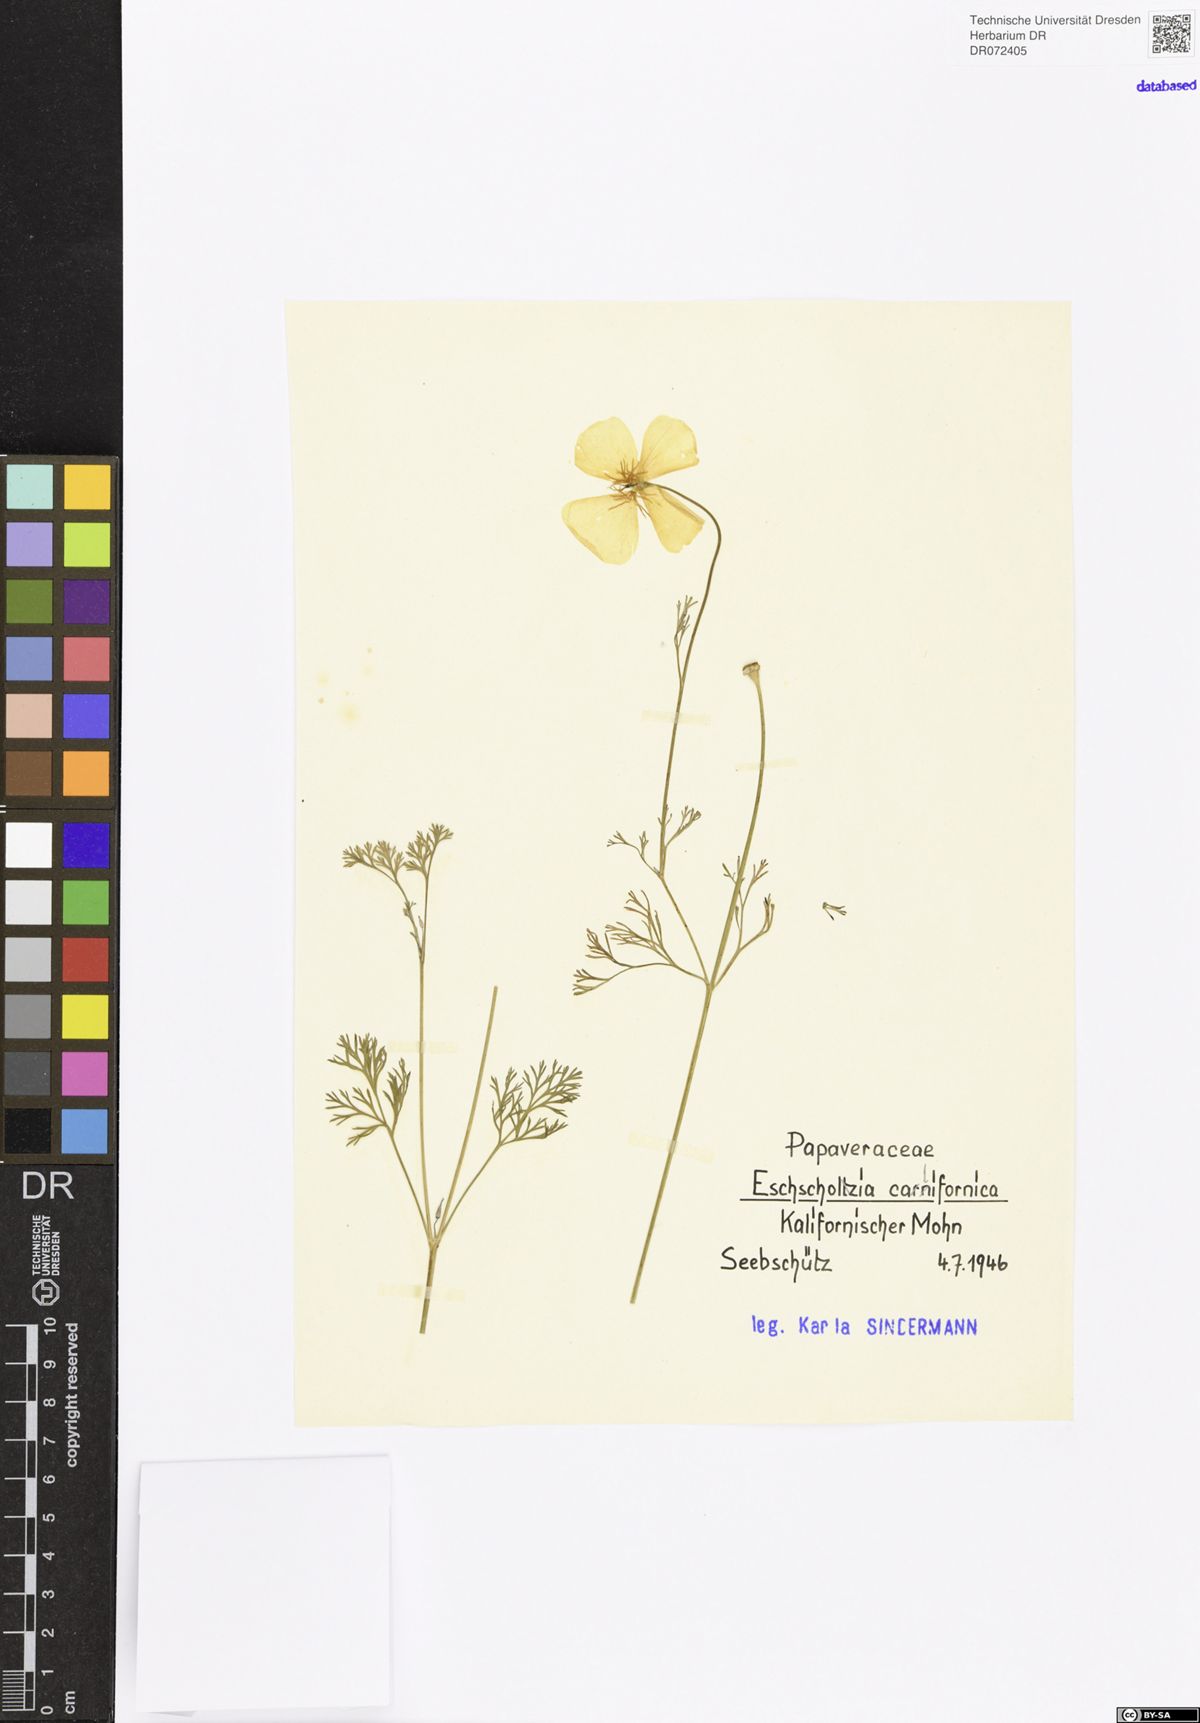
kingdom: Plantae
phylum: Tracheophyta
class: Magnoliopsida
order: Ranunculales
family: Papaveraceae
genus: Eschscholzia
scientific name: Eschscholzia californica
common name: California poppy
